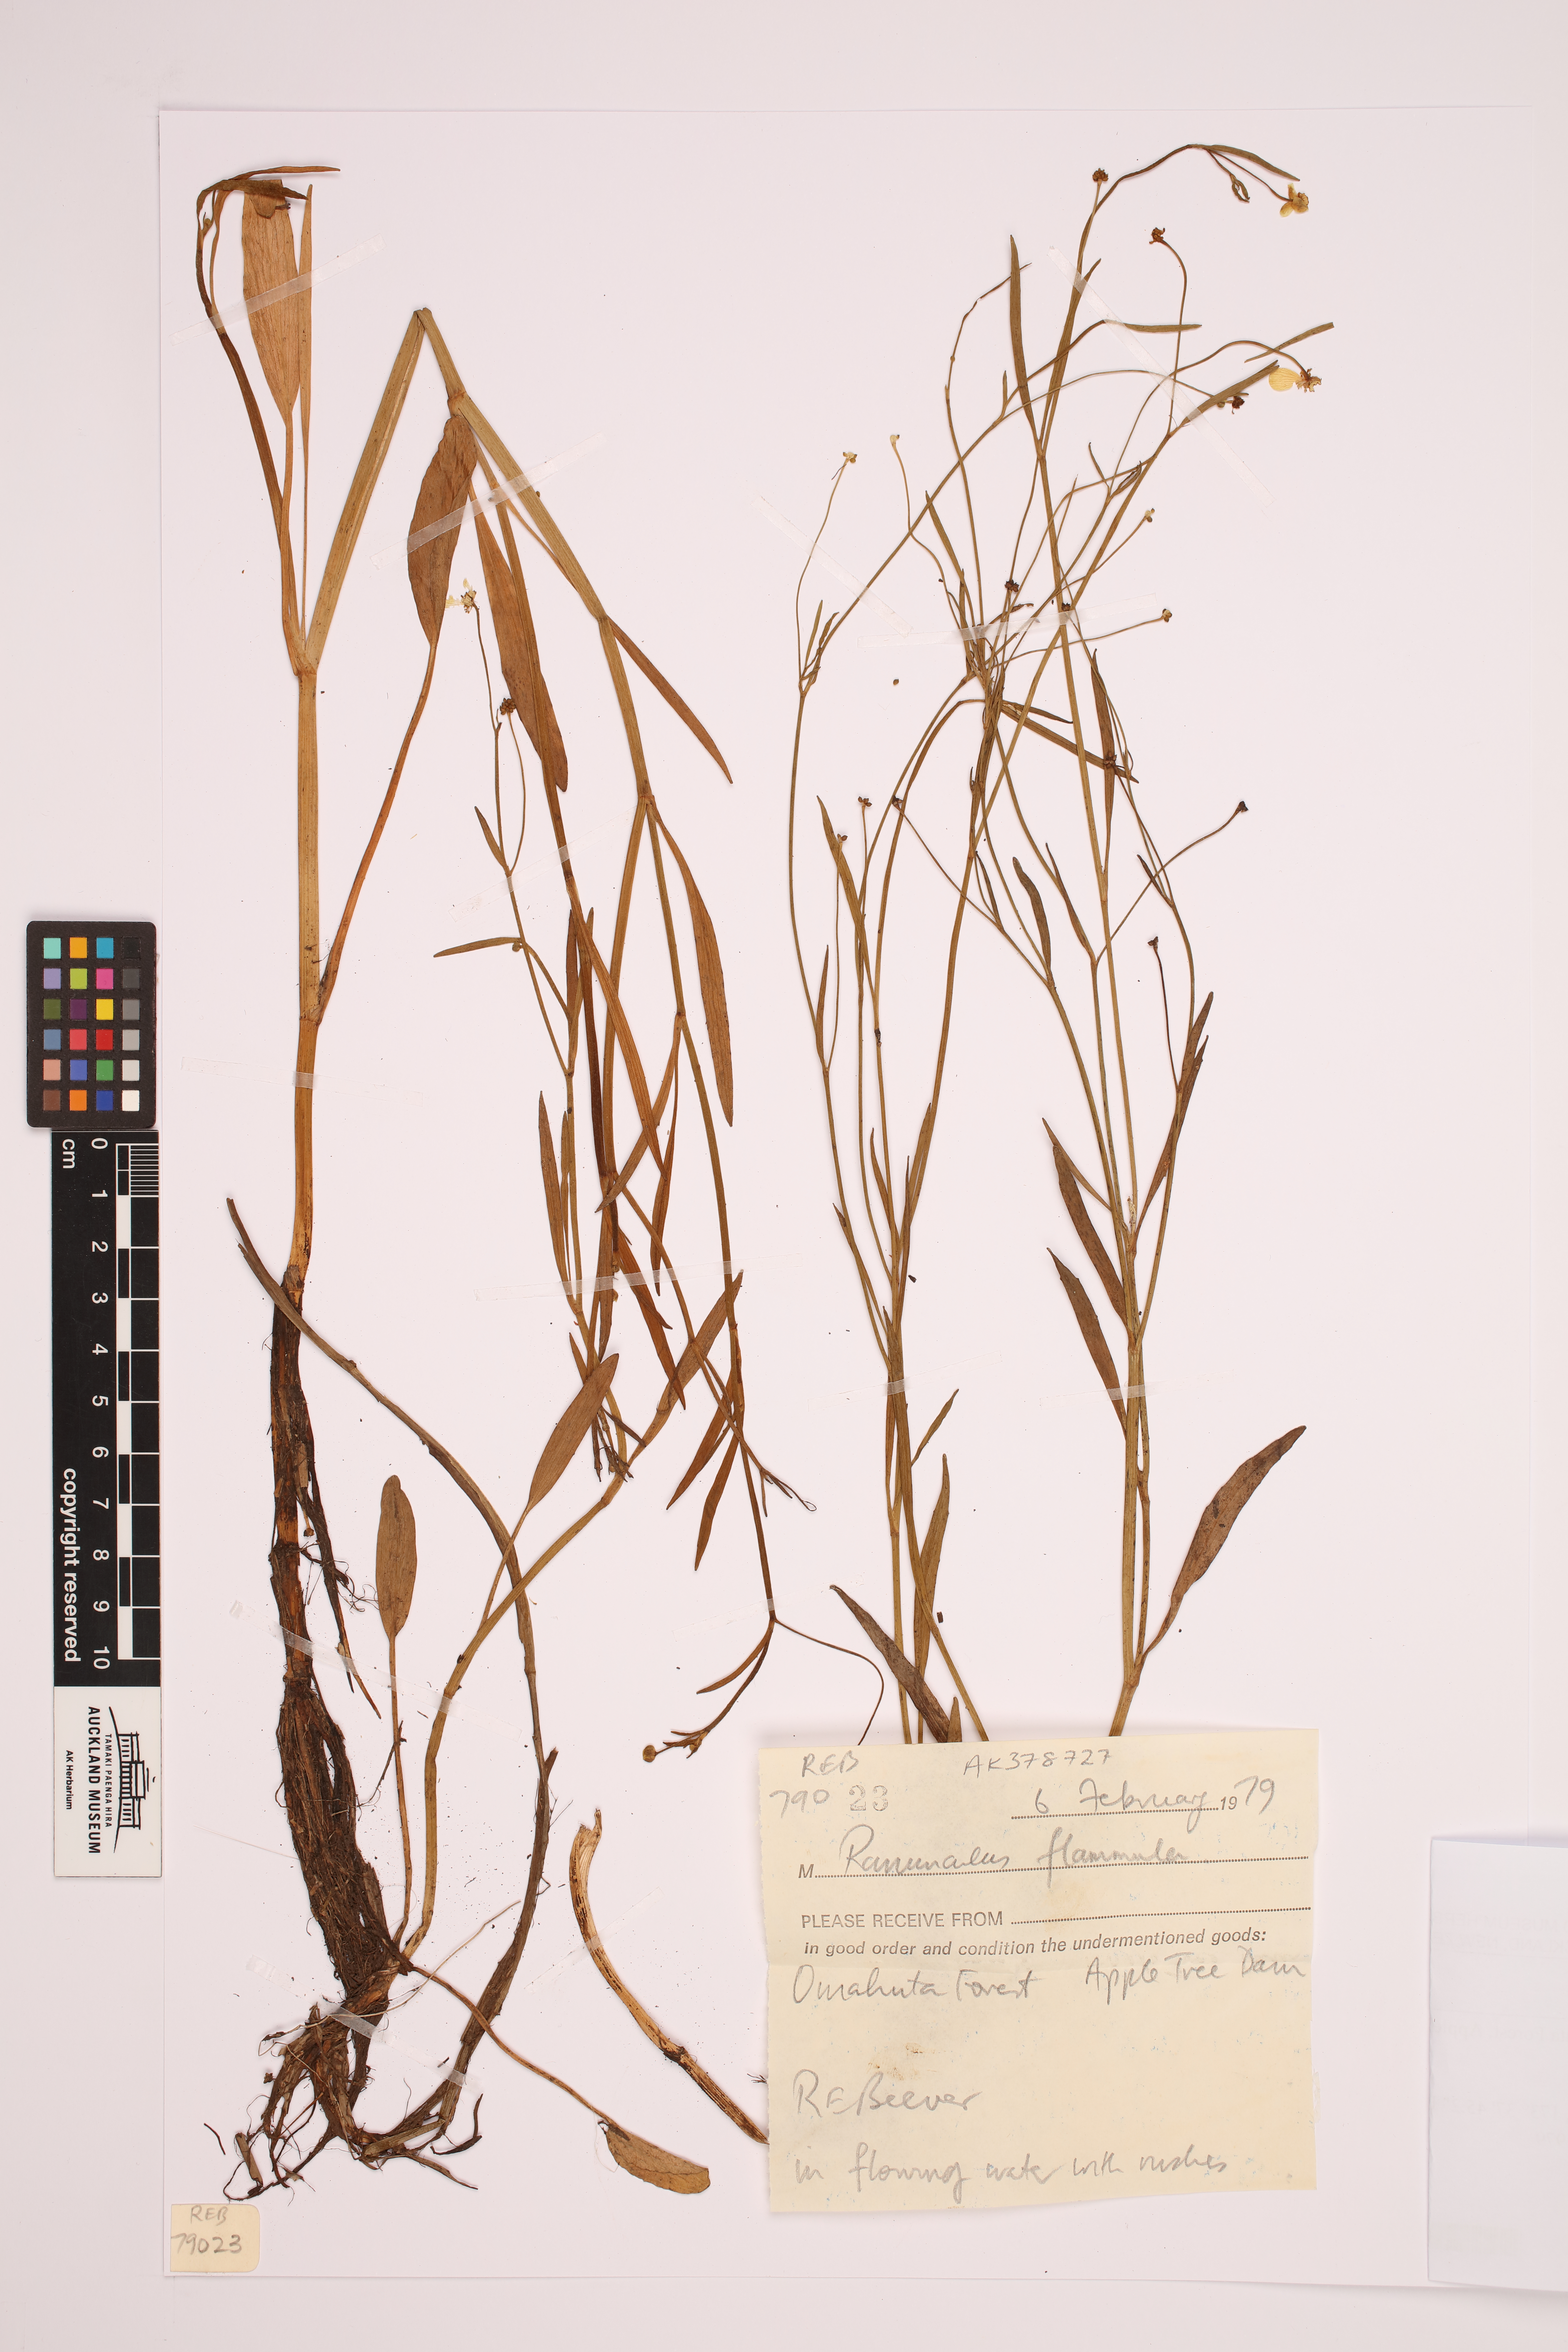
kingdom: Plantae
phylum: Tracheophyta
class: Magnoliopsida
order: Ranunculales
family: Ranunculaceae
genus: Ranunculus
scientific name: Ranunculus flammula
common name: Lesser spearwort
